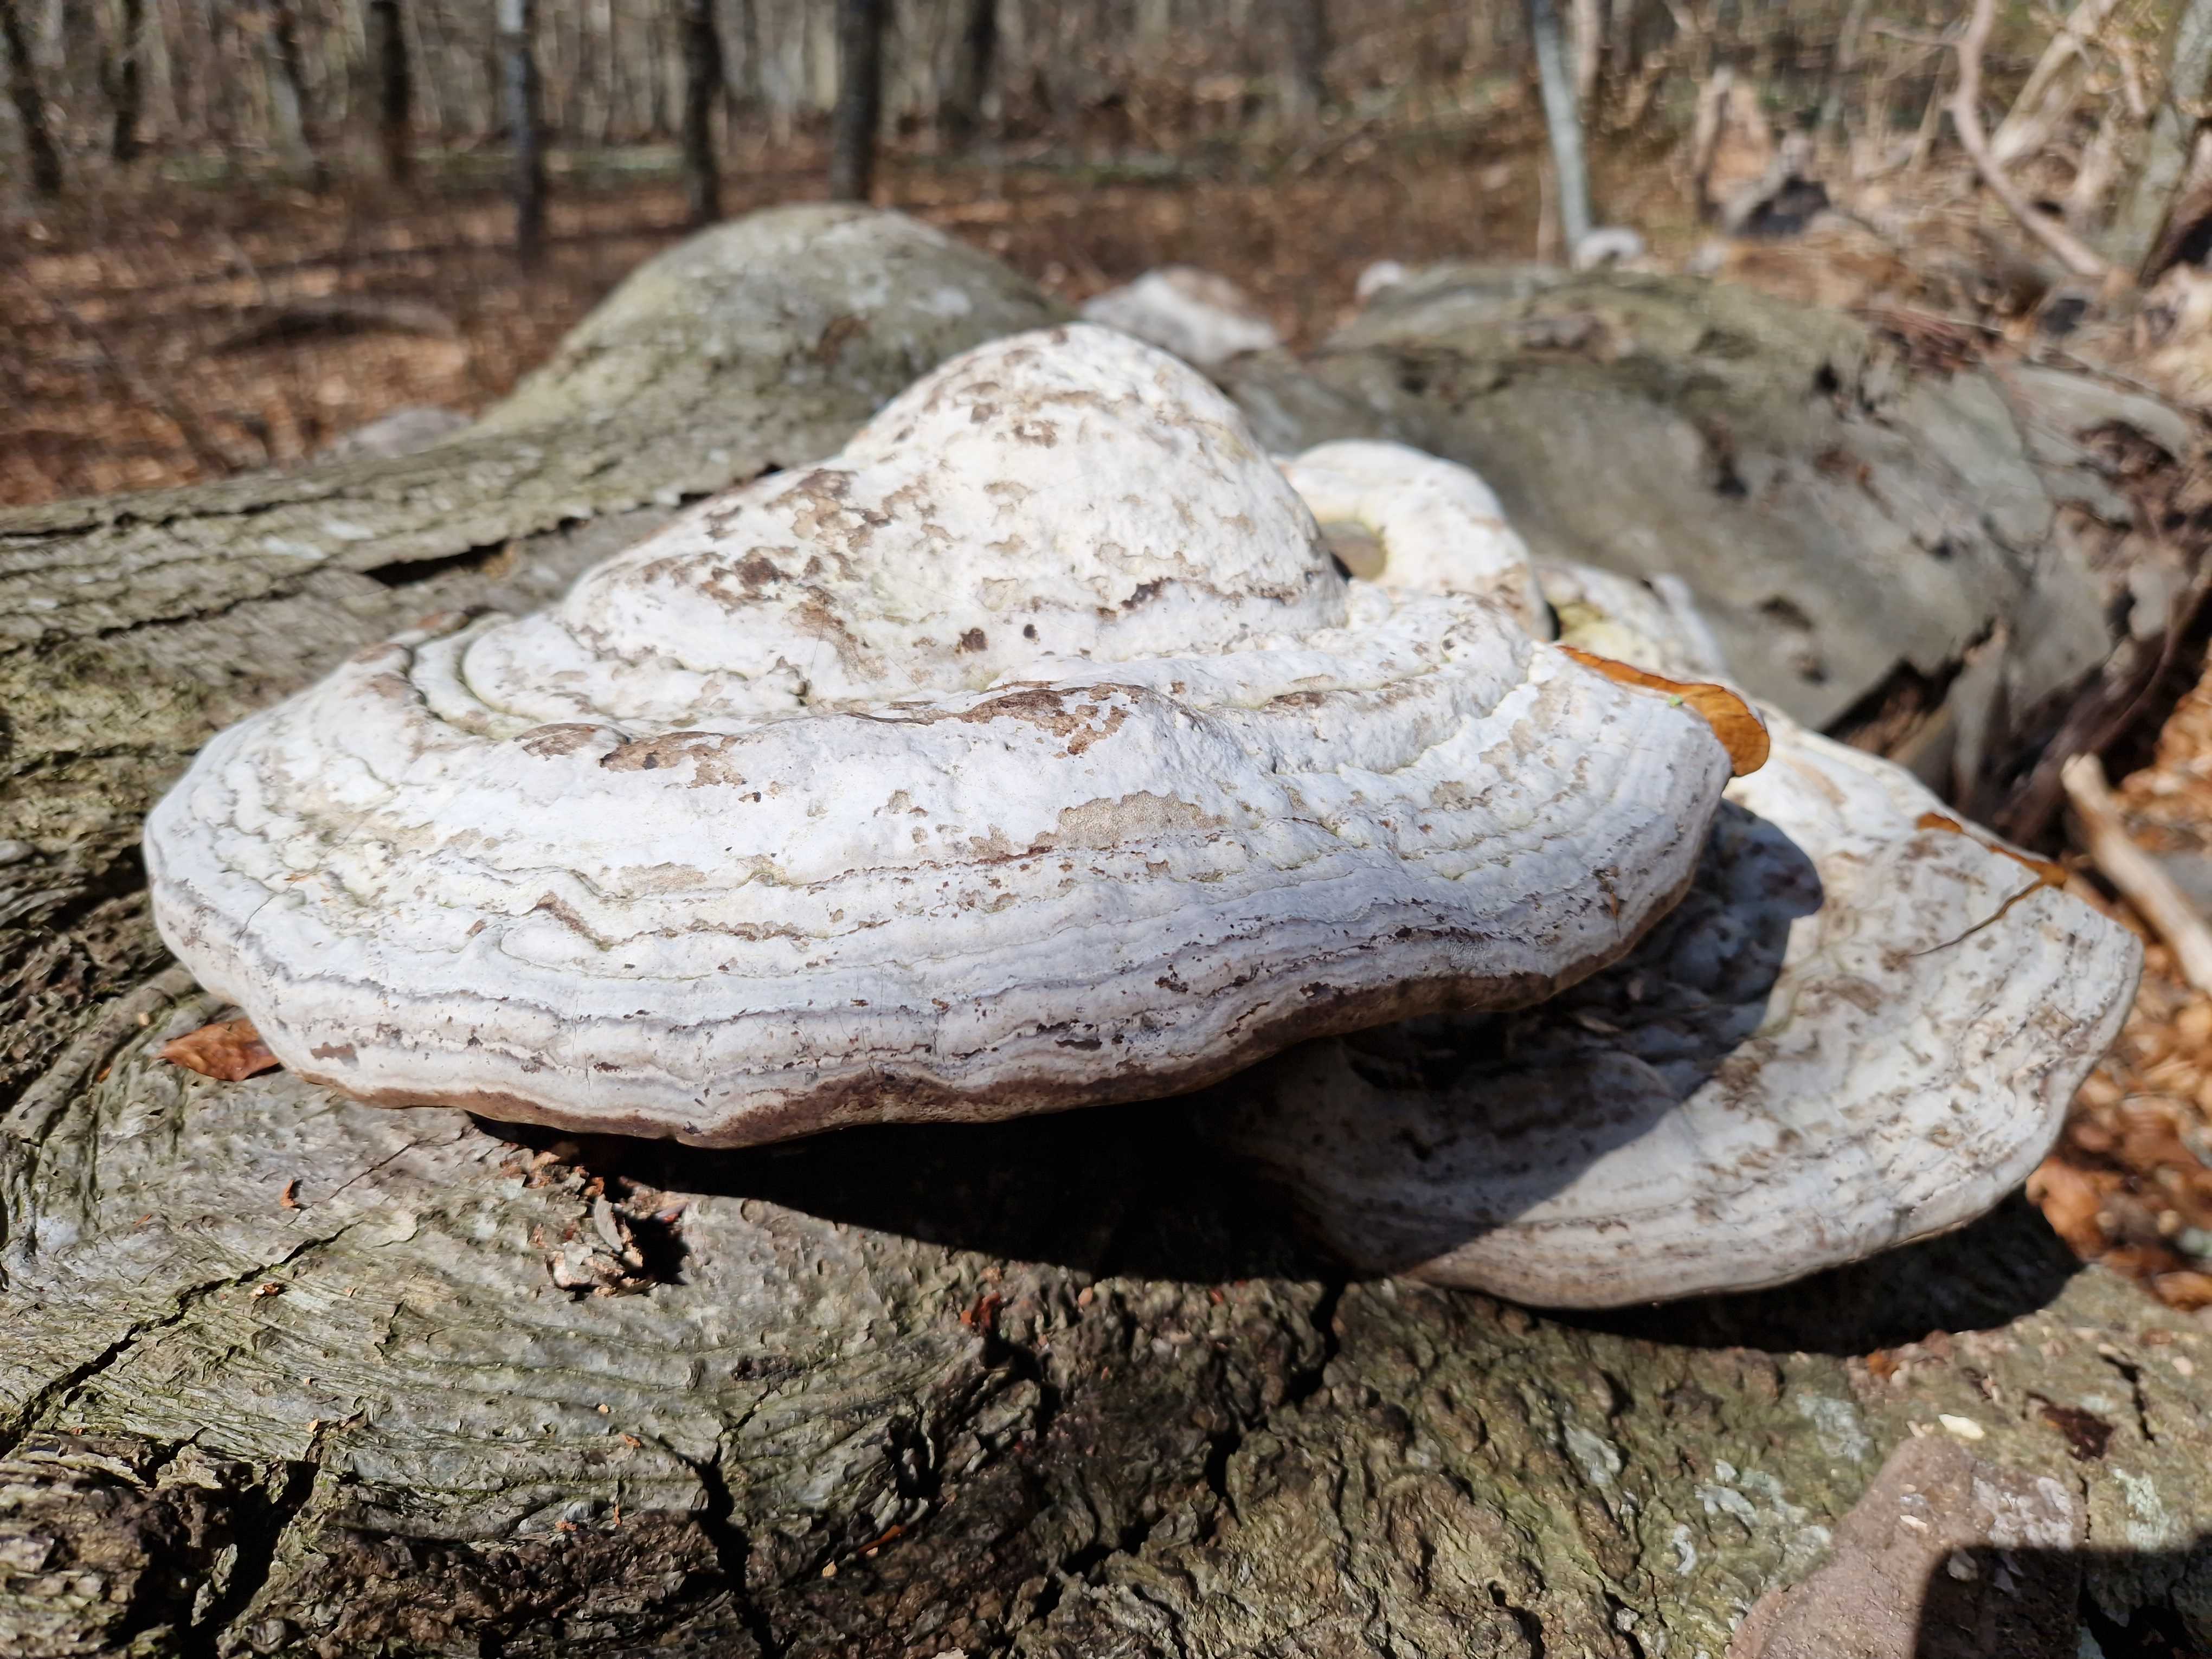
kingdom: Fungi
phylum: Basidiomycota
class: Agaricomycetes
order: Polyporales
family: Polyporaceae
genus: Fomes
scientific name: Fomes fomentarius
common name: tøndersvamp
